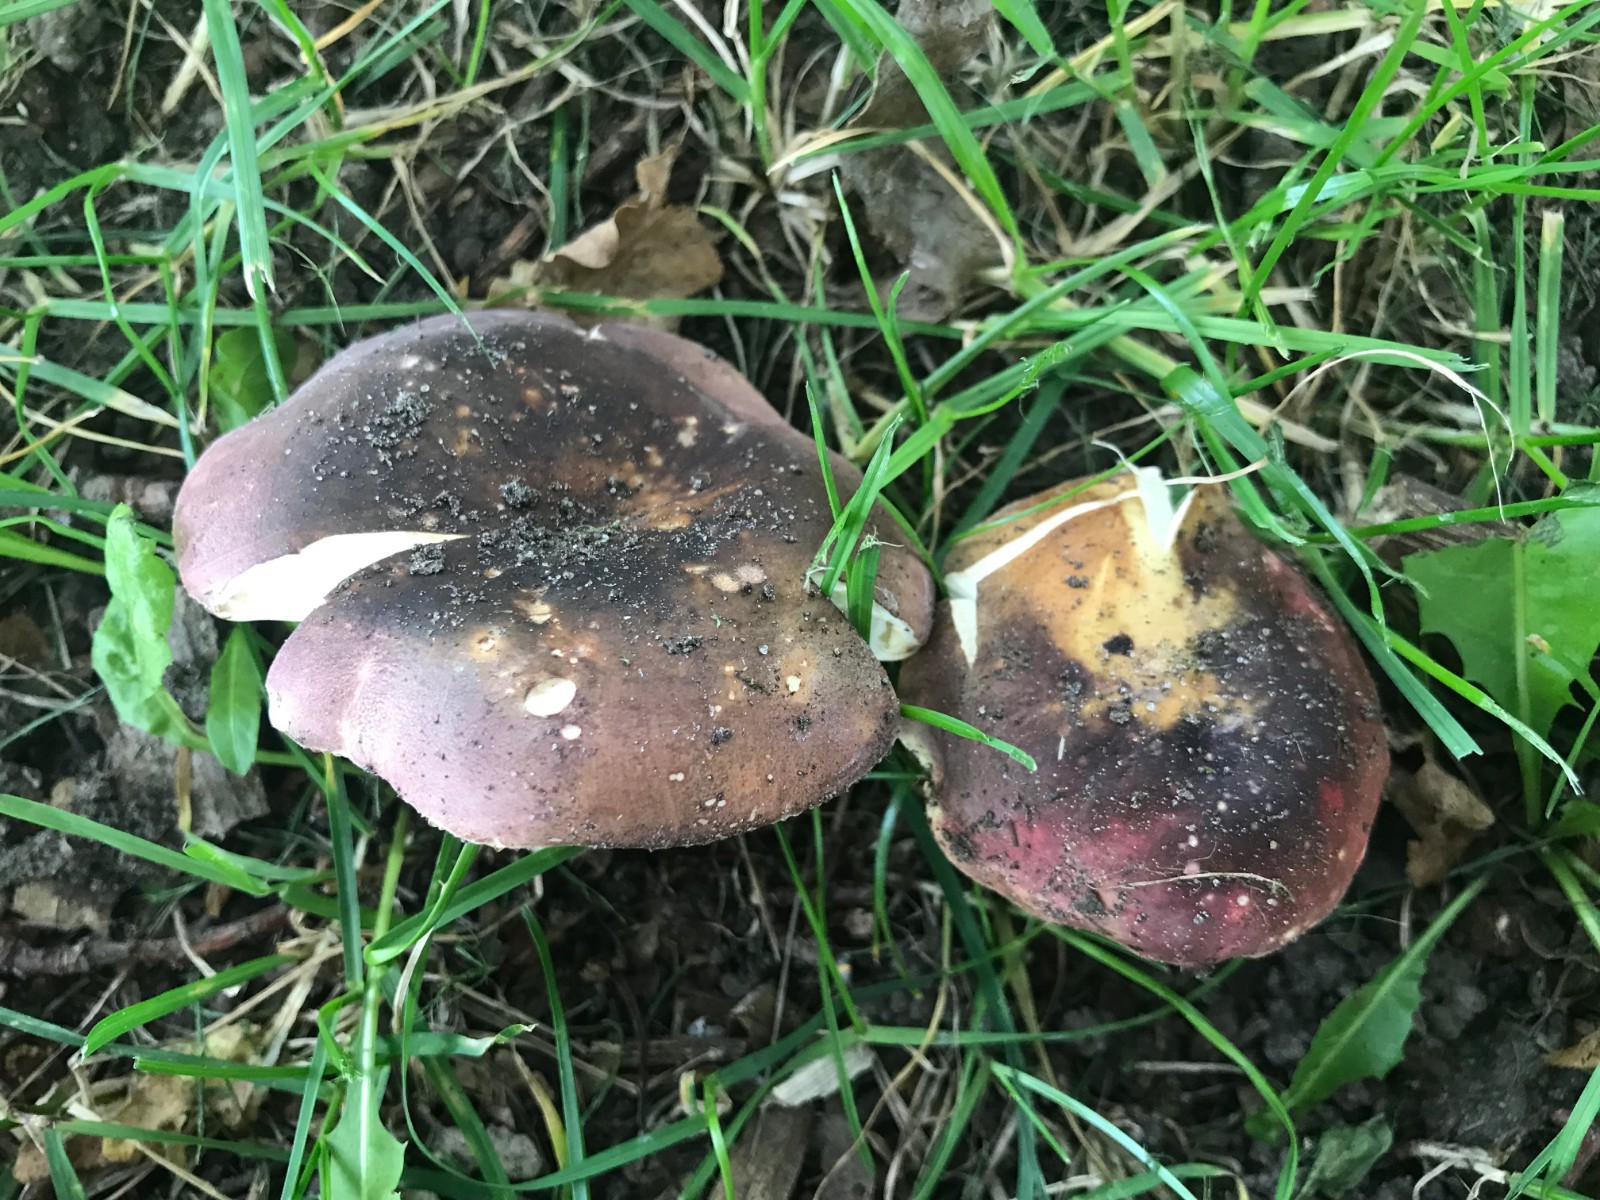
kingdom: Fungi
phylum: Basidiomycota
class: Agaricomycetes
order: Russulales
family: Russulaceae
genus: Russula
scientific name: Russula graveolens
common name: bugtet skørhat
